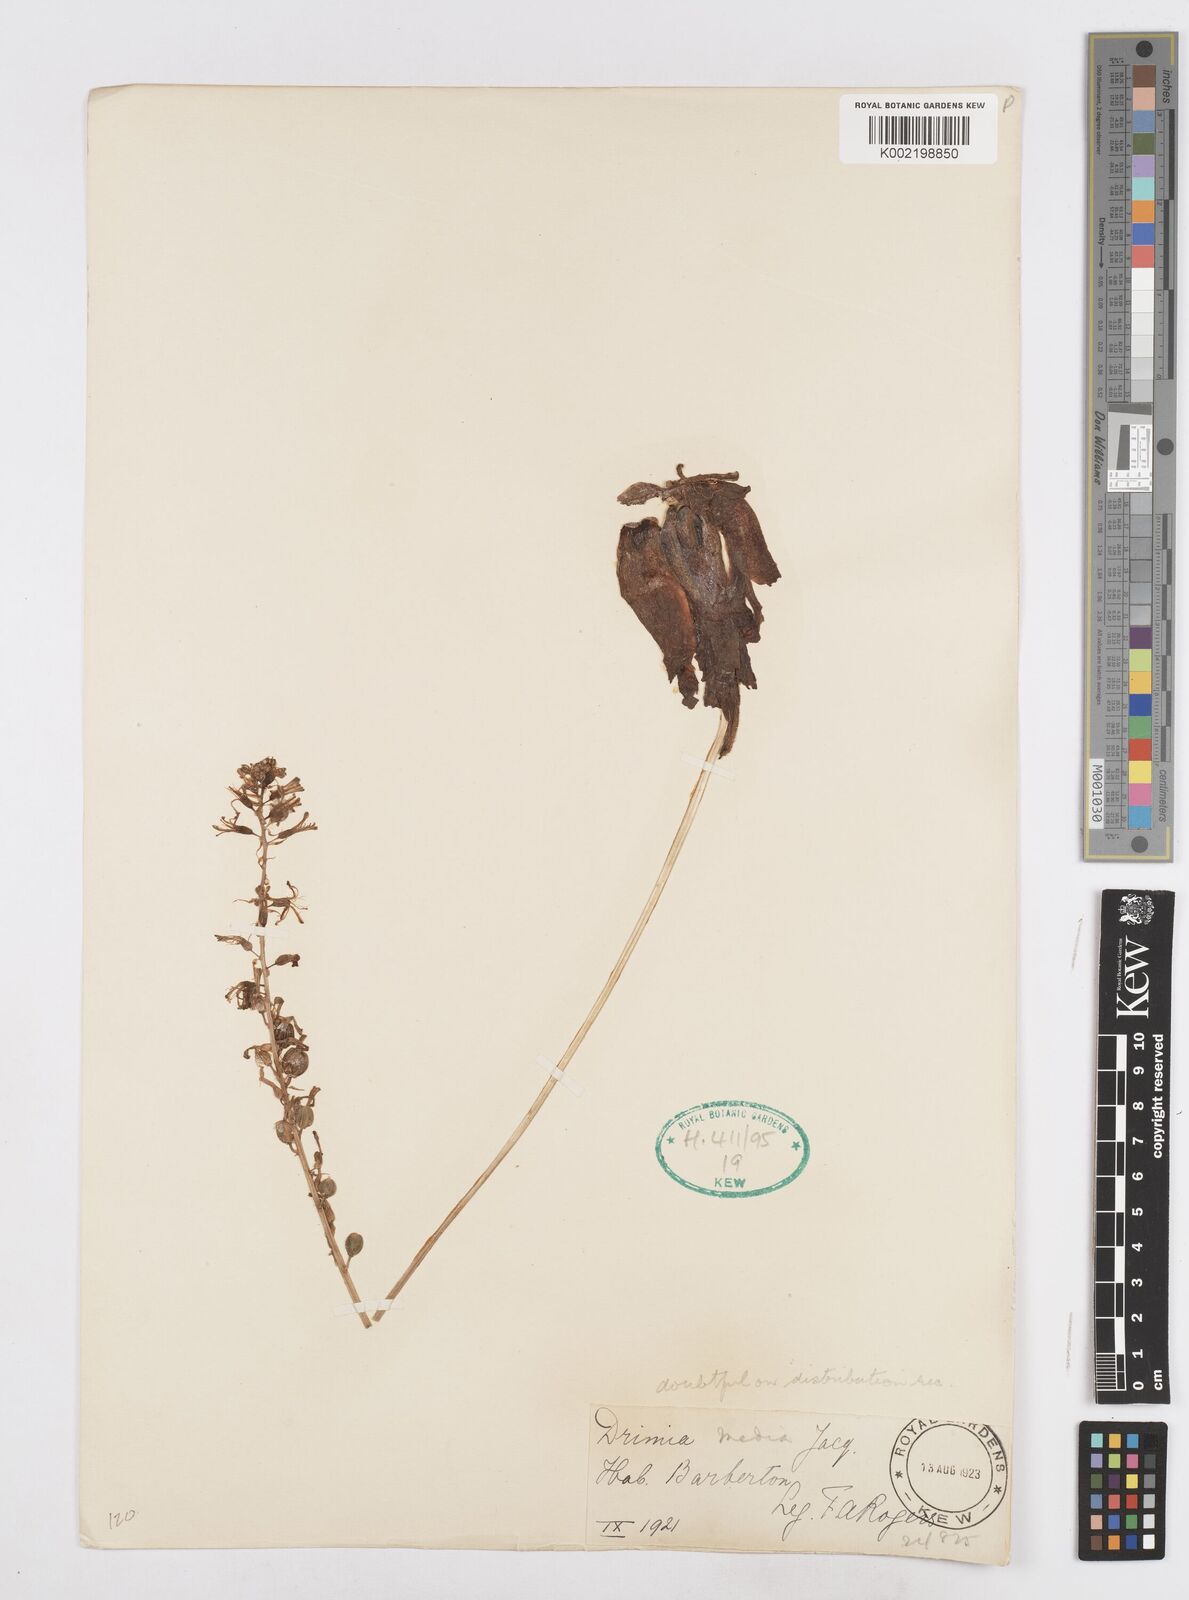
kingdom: Plantae
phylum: Tracheophyta
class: Liliopsida
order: Asparagales
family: Asparagaceae
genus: Drimia
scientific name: Drimia media
